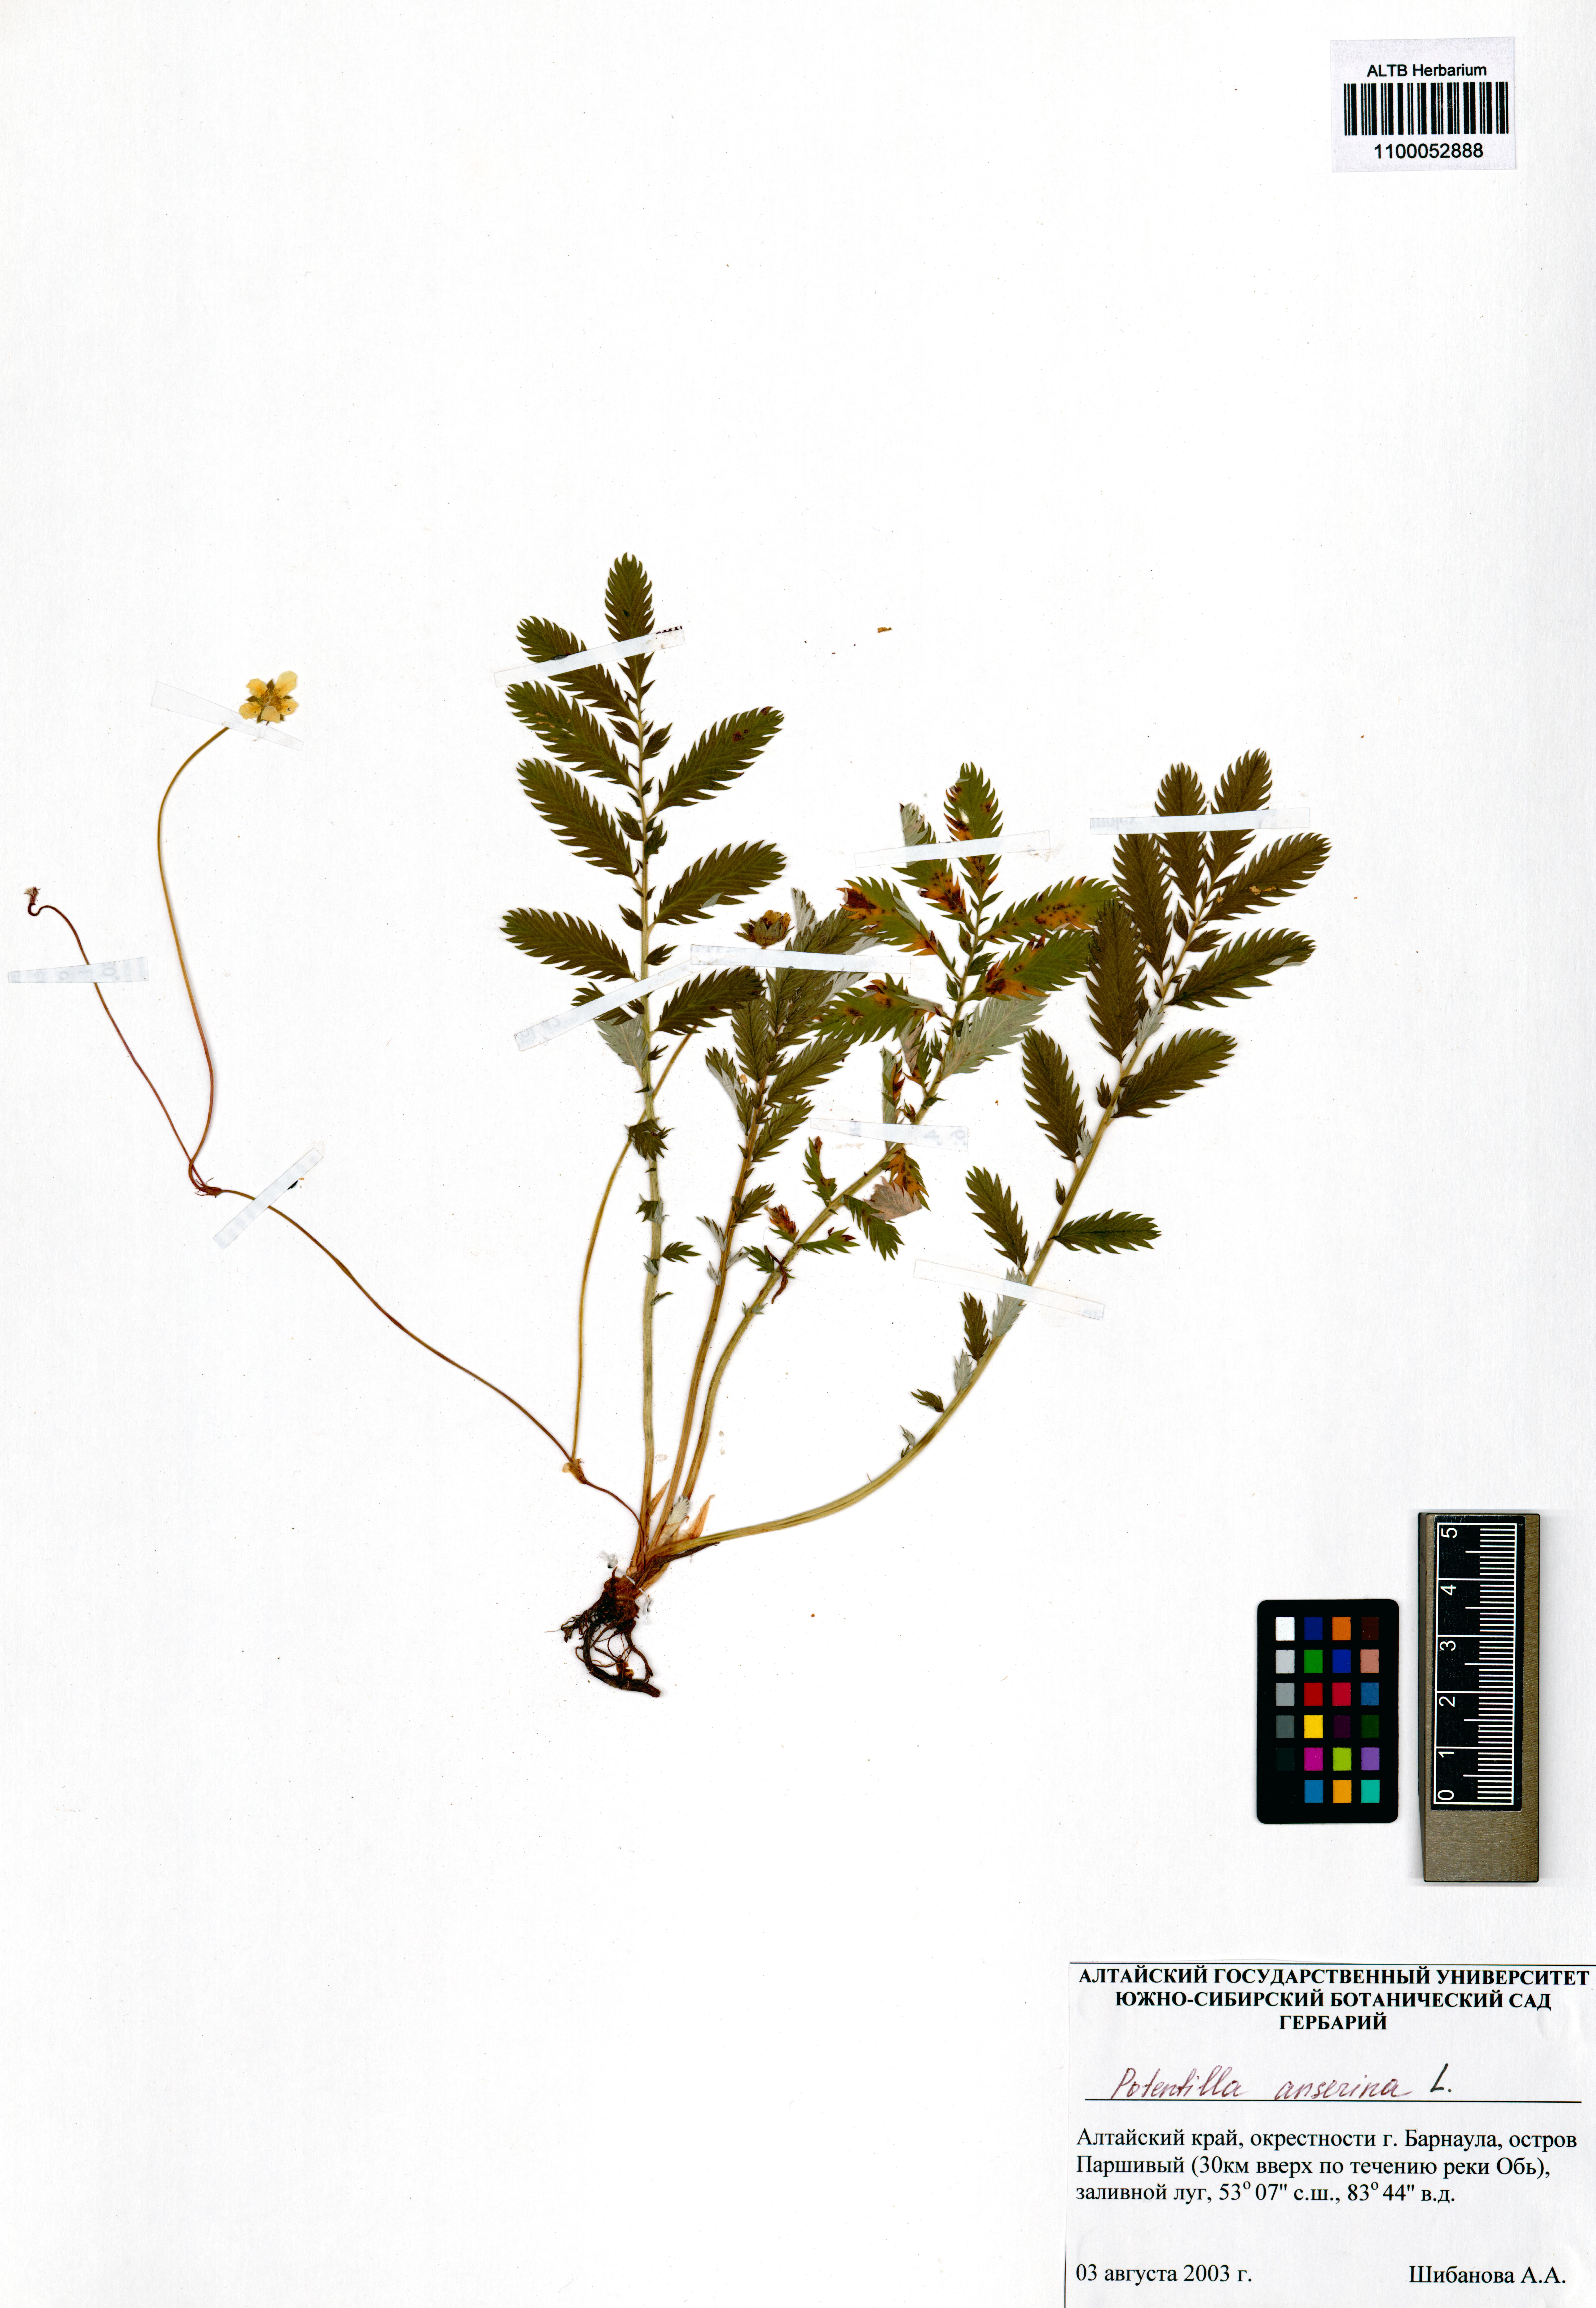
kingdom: Plantae
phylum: Tracheophyta
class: Magnoliopsida
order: Rosales
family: Rosaceae
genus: Argentina
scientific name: Argentina anserina
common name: Common silverweed
